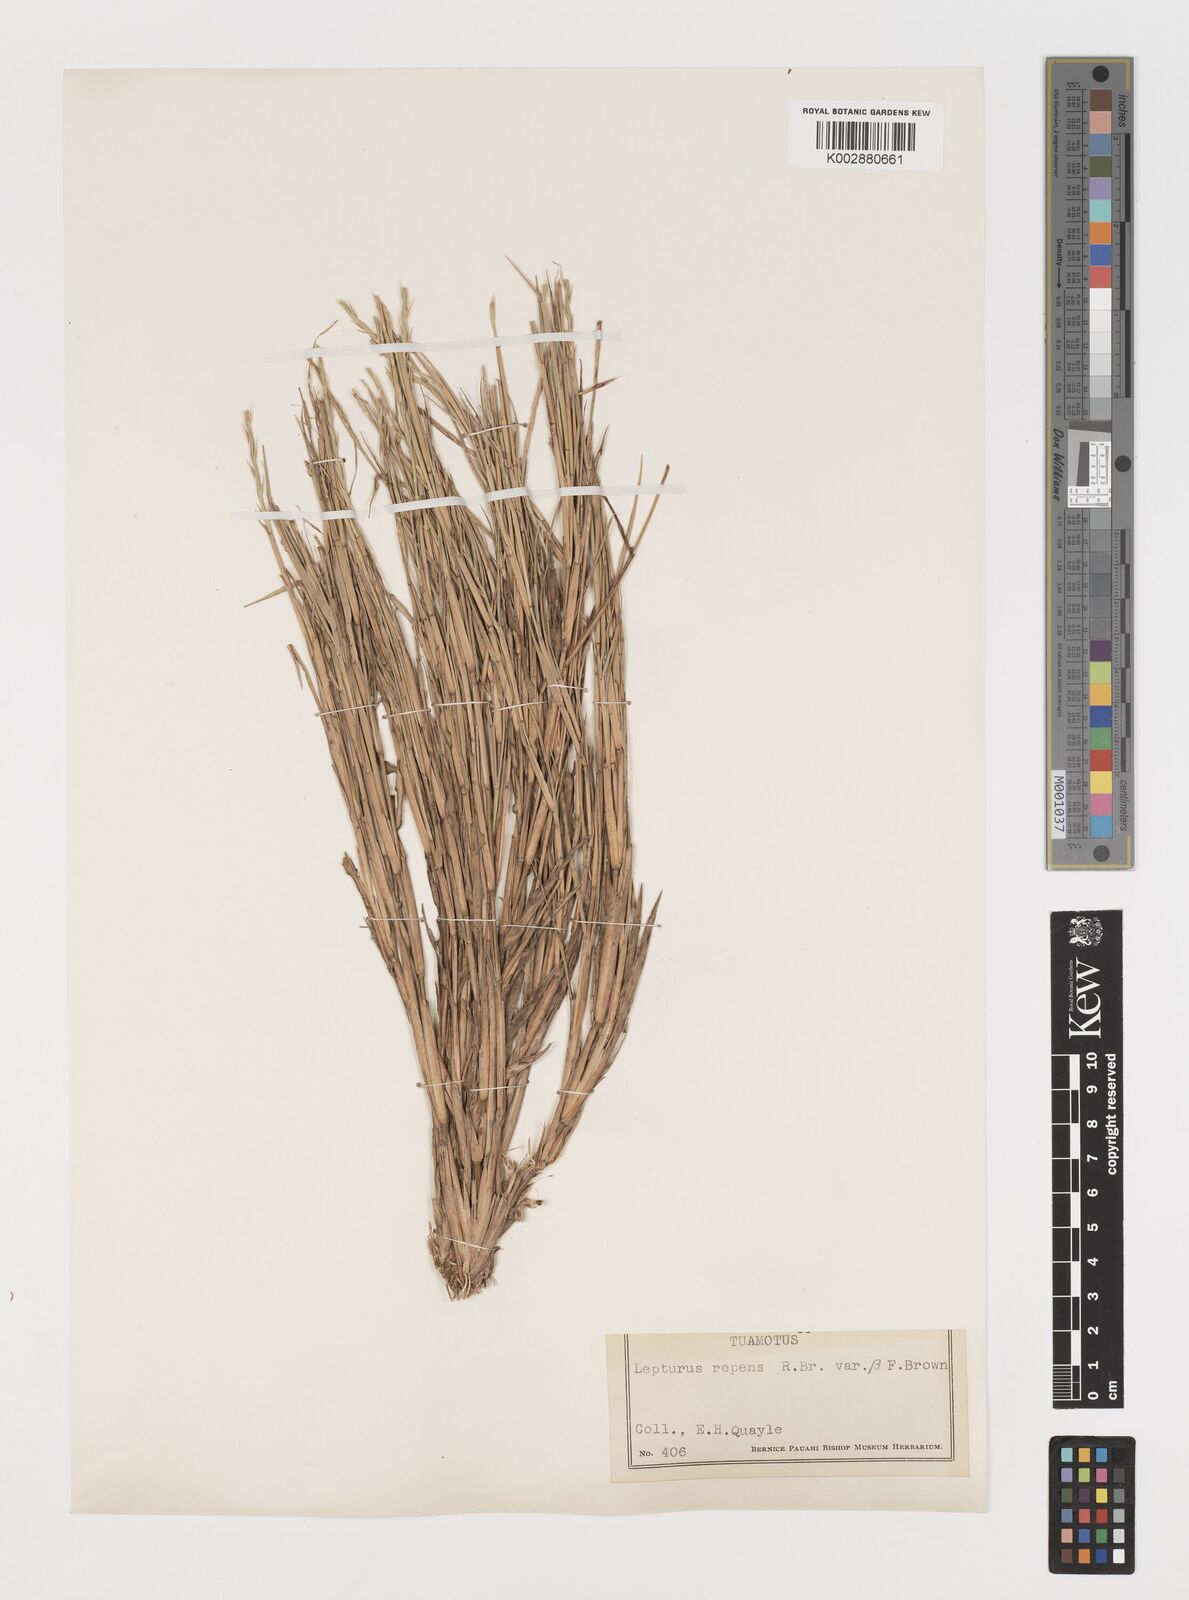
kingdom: Plantae
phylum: Tracheophyta
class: Liliopsida
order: Poales
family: Poaceae
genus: Lepturus
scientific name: Lepturus repens
